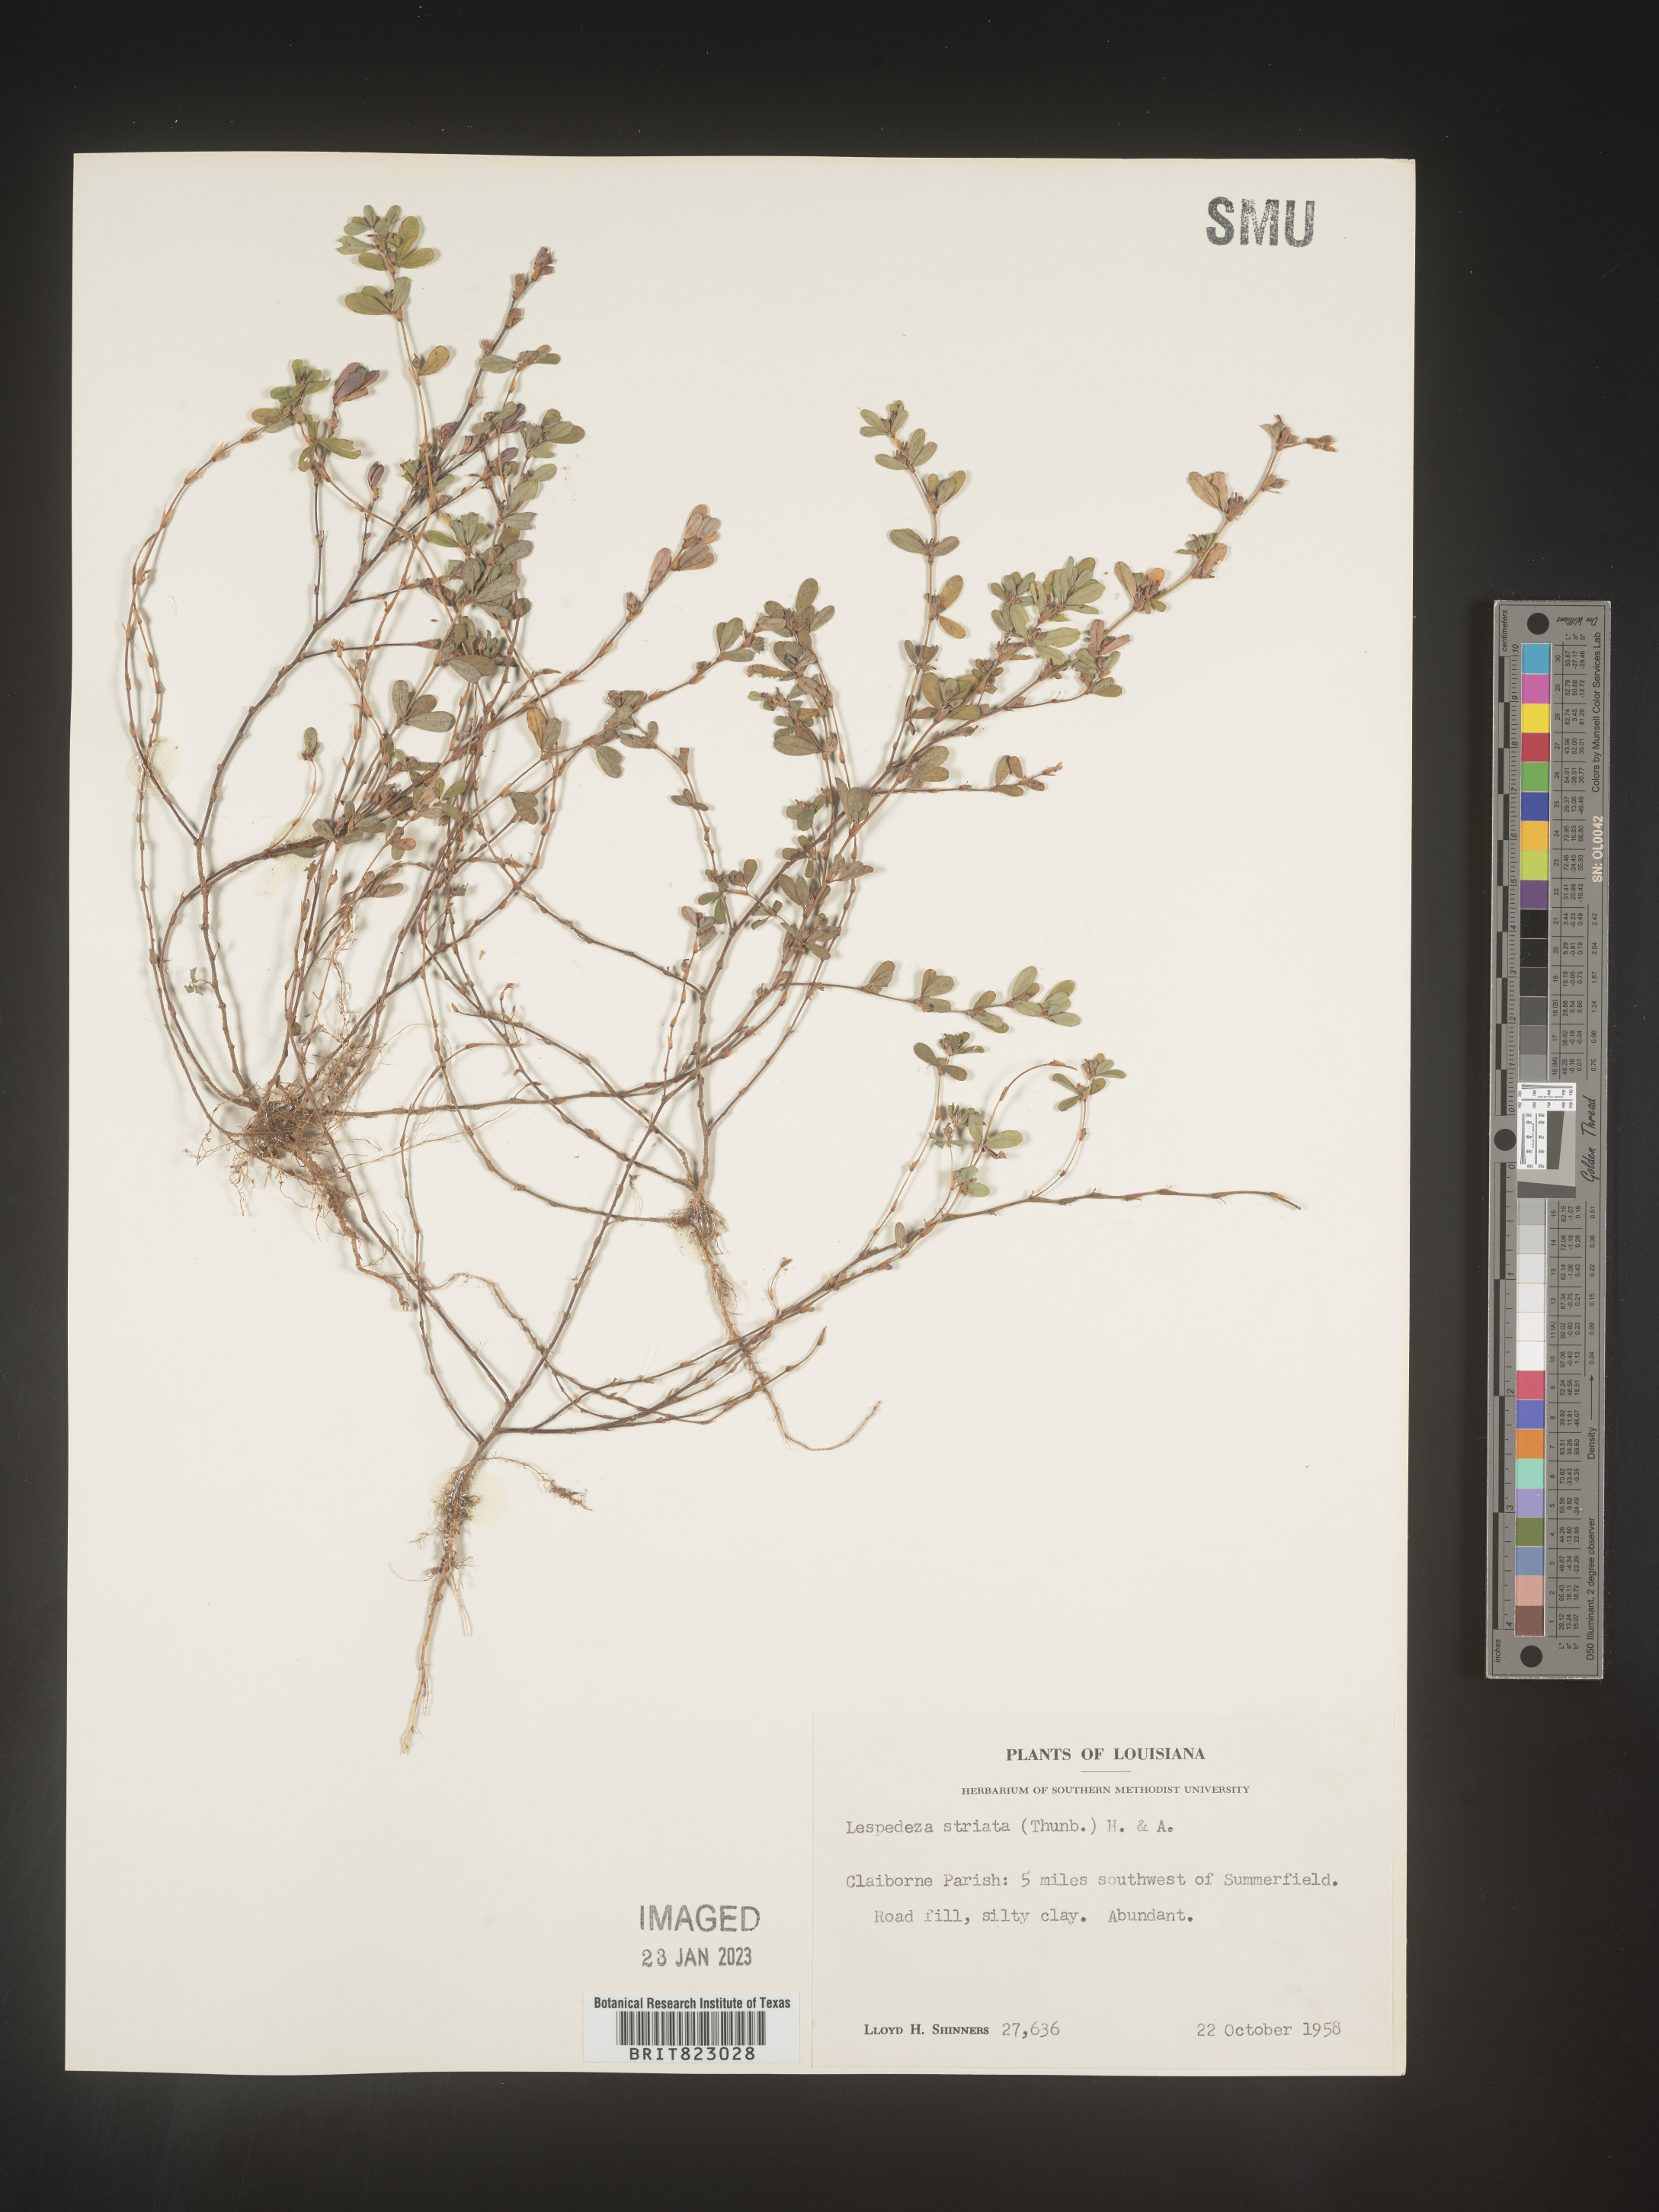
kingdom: Plantae
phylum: Tracheophyta
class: Magnoliopsida
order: Fabales
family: Fabaceae
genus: Kummerowia
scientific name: Kummerowia striata
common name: Japanese clover
